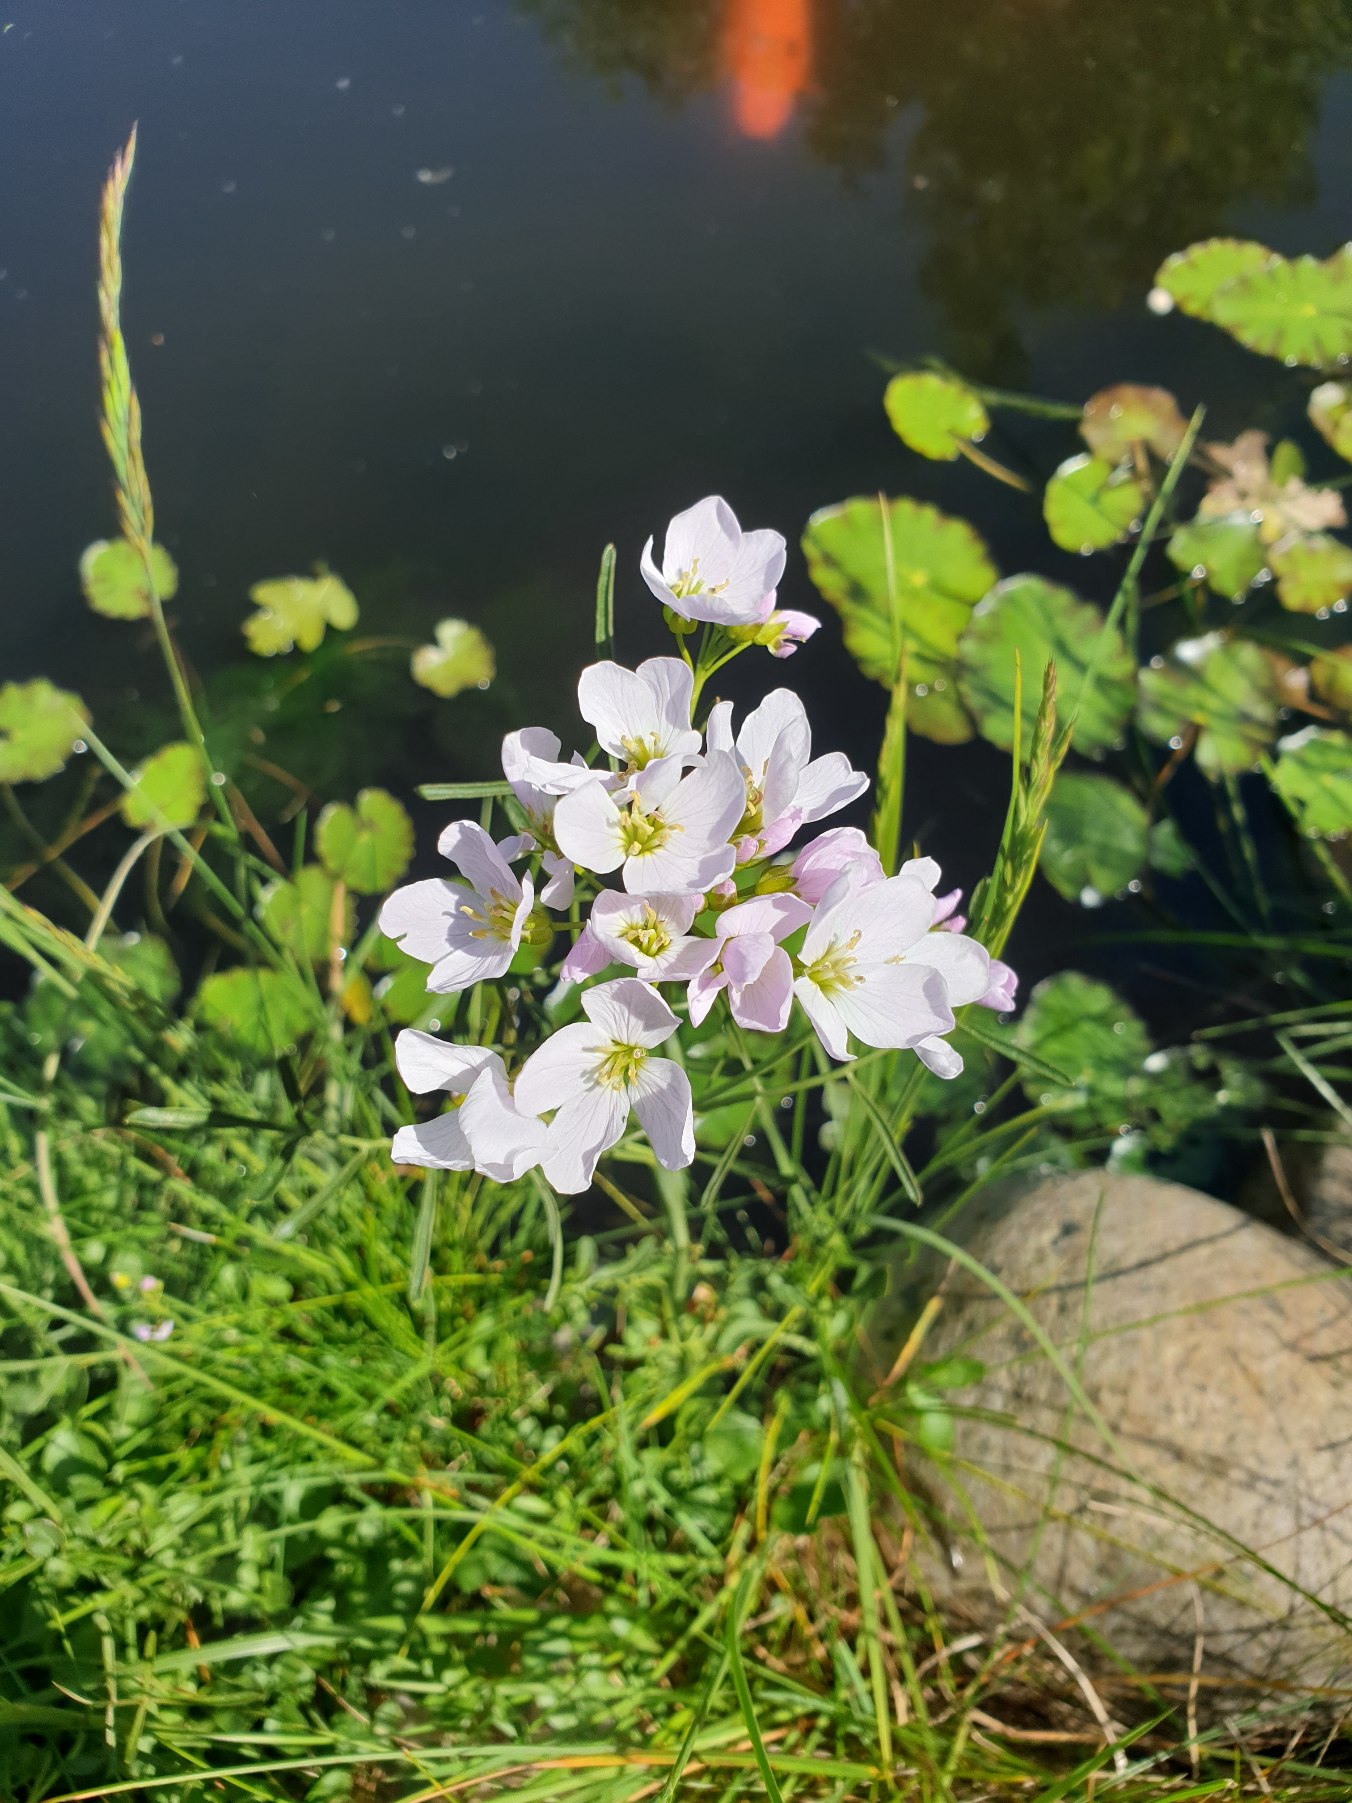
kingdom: Plantae
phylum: Tracheophyta
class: Magnoliopsida
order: Brassicales
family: Brassicaceae
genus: Cardamine
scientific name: Cardamine pratensis
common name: Engkarse
